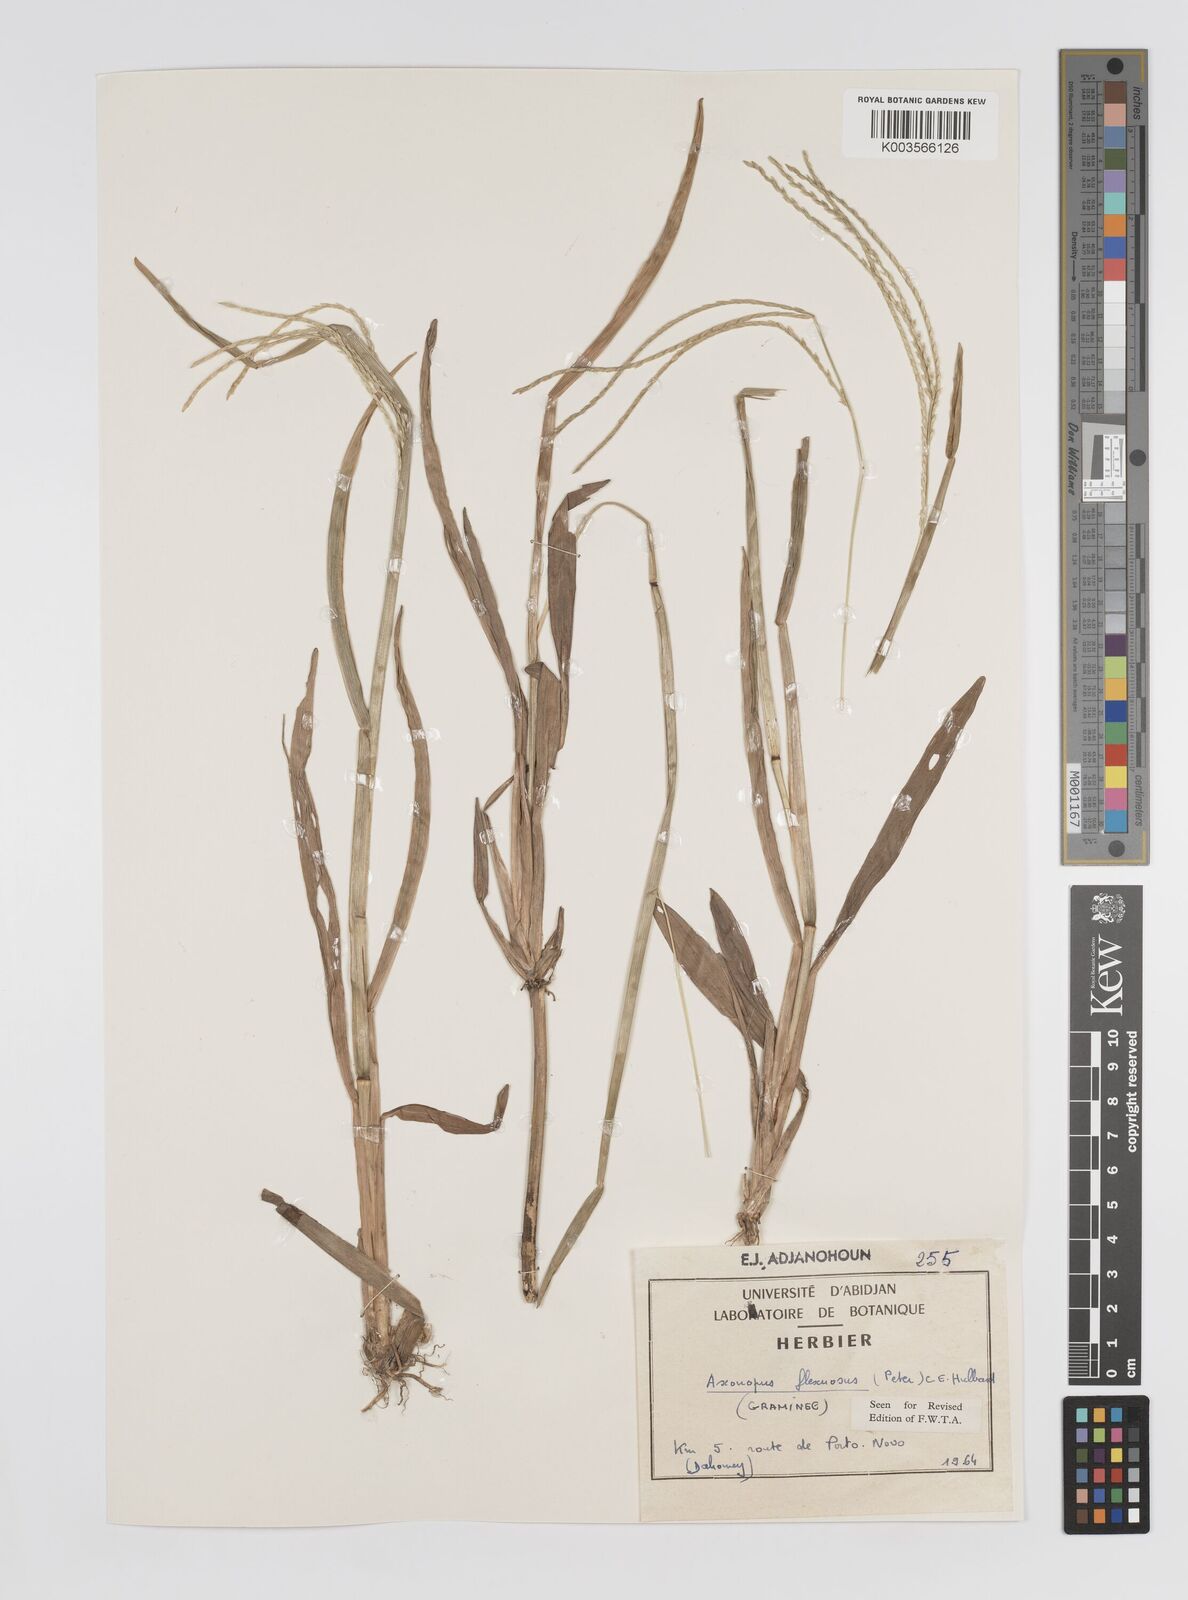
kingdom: Plantae
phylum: Tracheophyta
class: Liliopsida
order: Poales
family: Poaceae
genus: Axonopus
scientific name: Axonopus flexuosus
